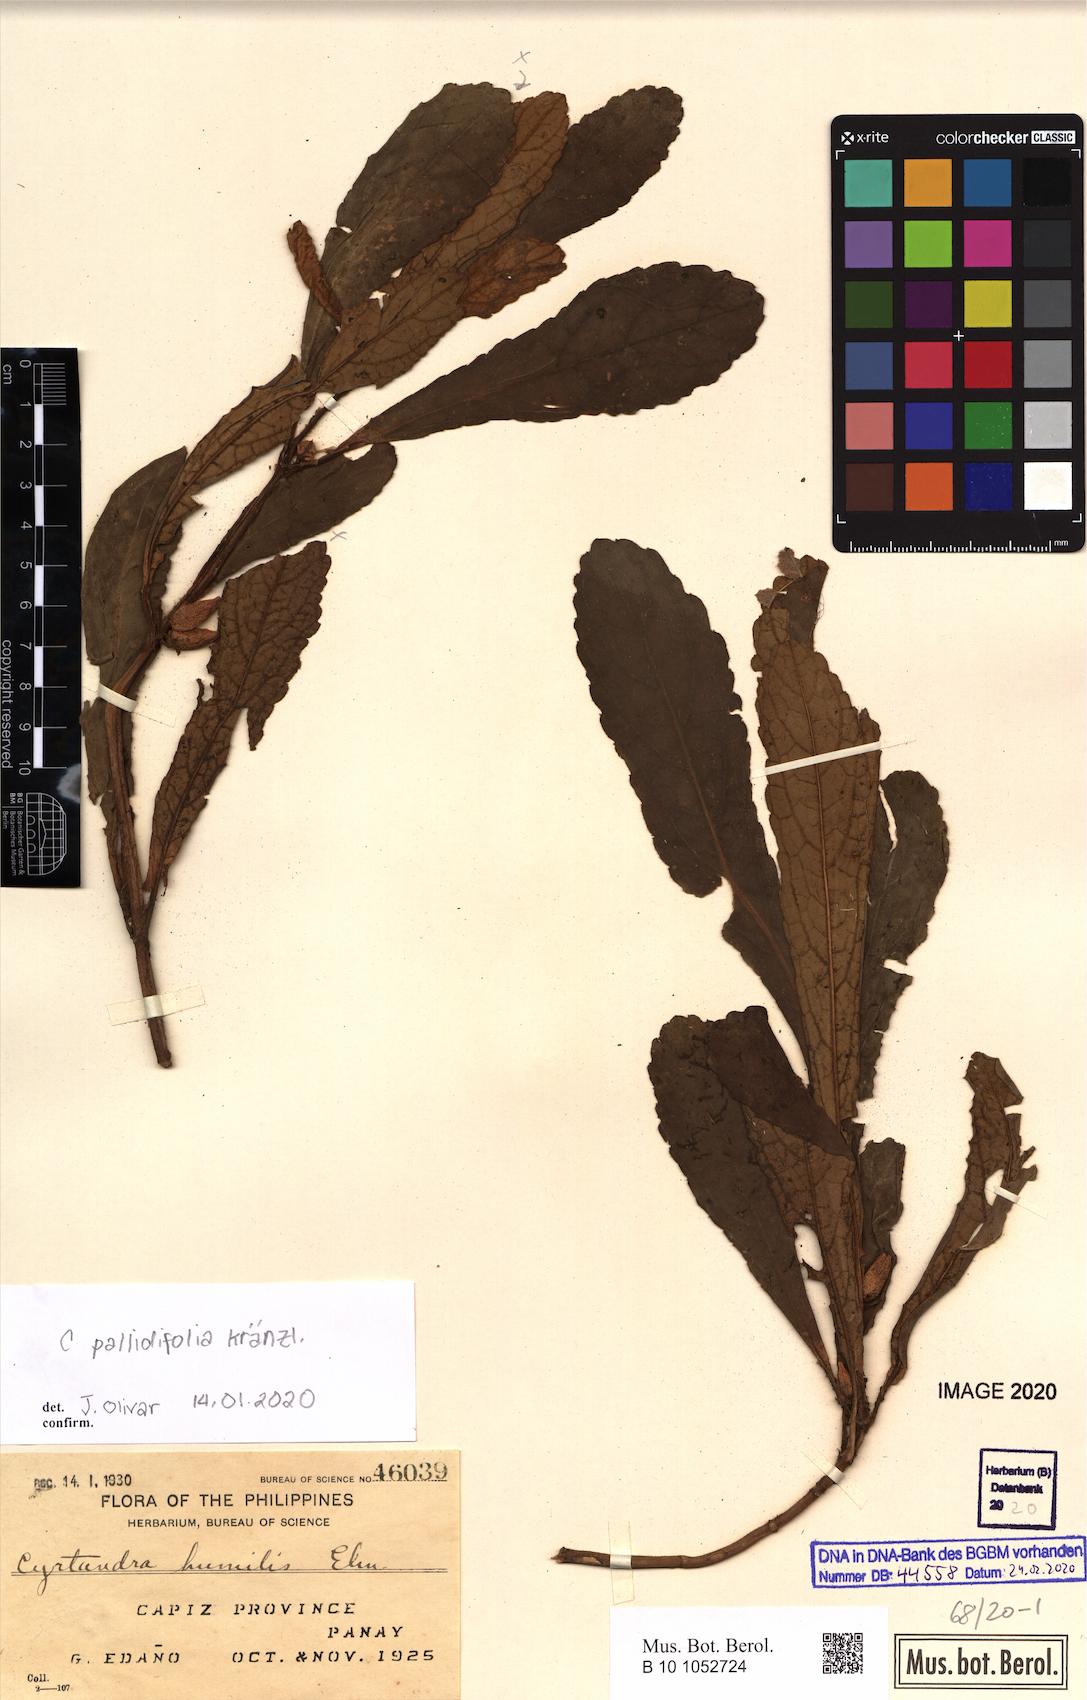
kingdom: Plantae
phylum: Tracheophyta
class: Magnoliopsida
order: Lamiales
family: Gesneriaceae
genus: Cyrtandra
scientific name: Cyrtandra humilis
